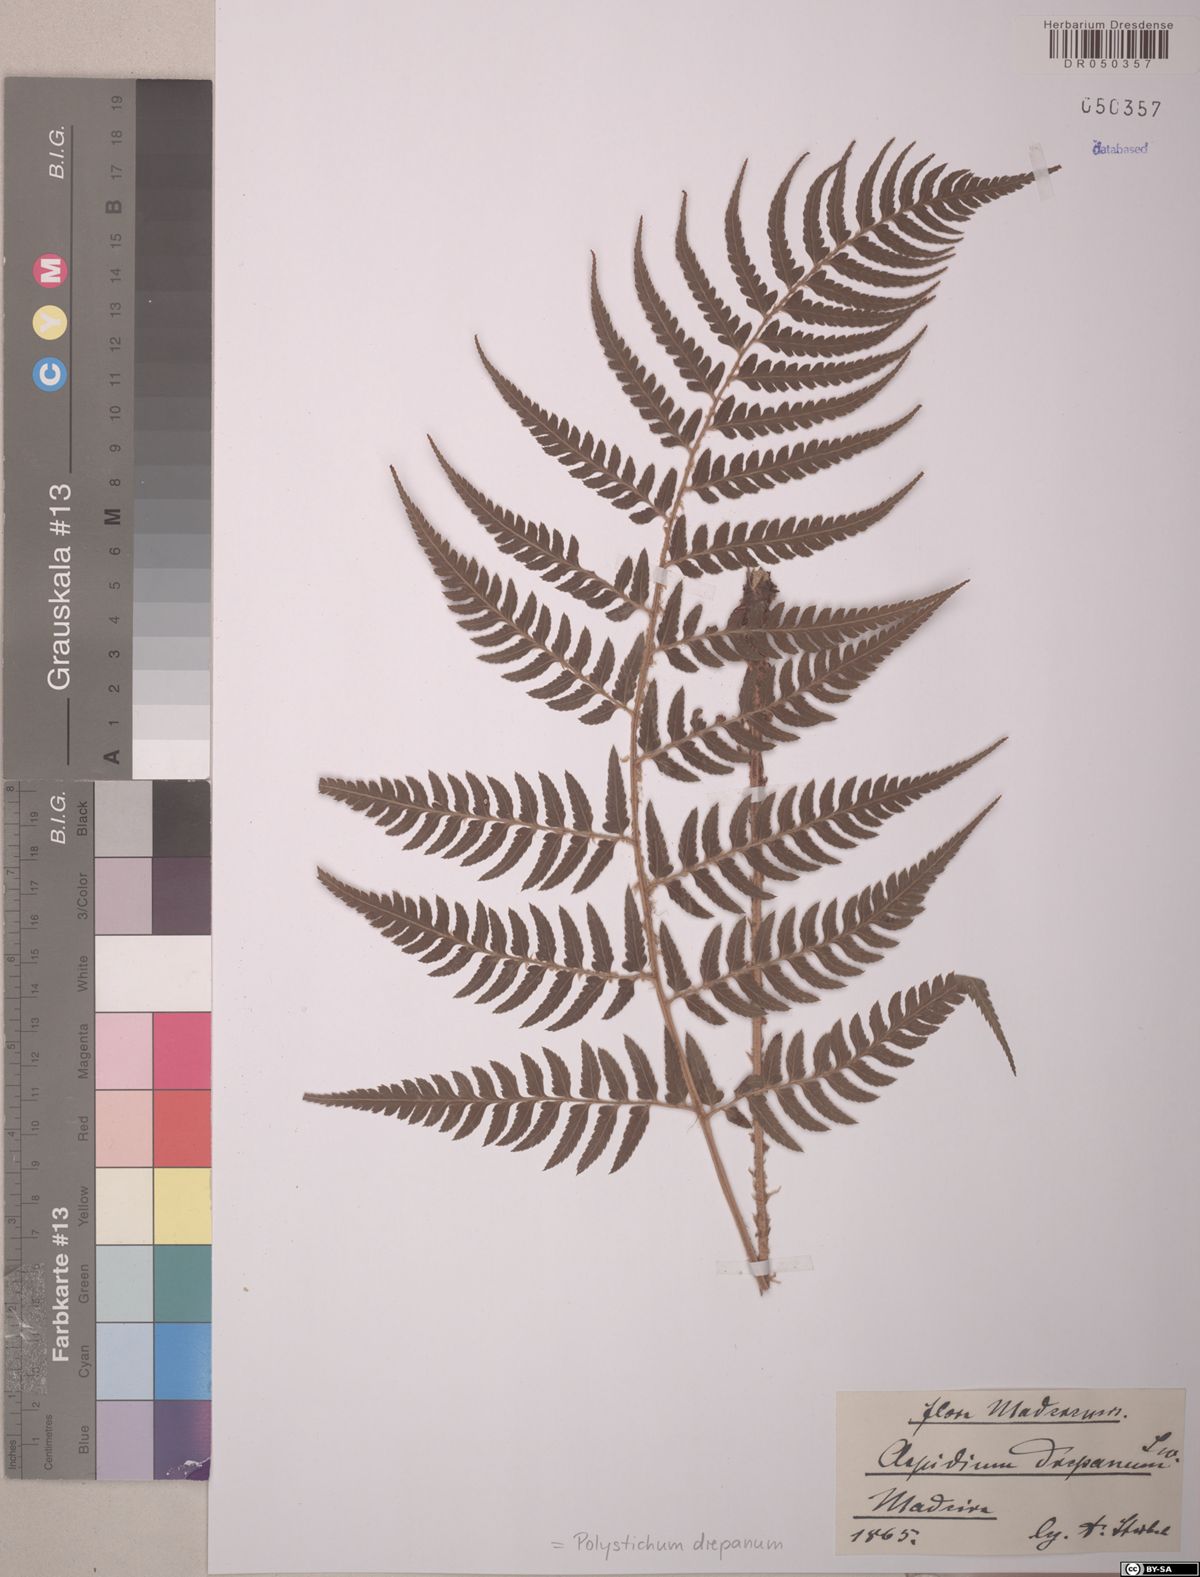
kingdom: Plantae
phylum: Tracheophyta
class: Polypodiopsida
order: Polypodiales
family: Dryopteridaceae
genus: Polystichum
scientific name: Polystichum drepanum
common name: Madeira shield-fern
